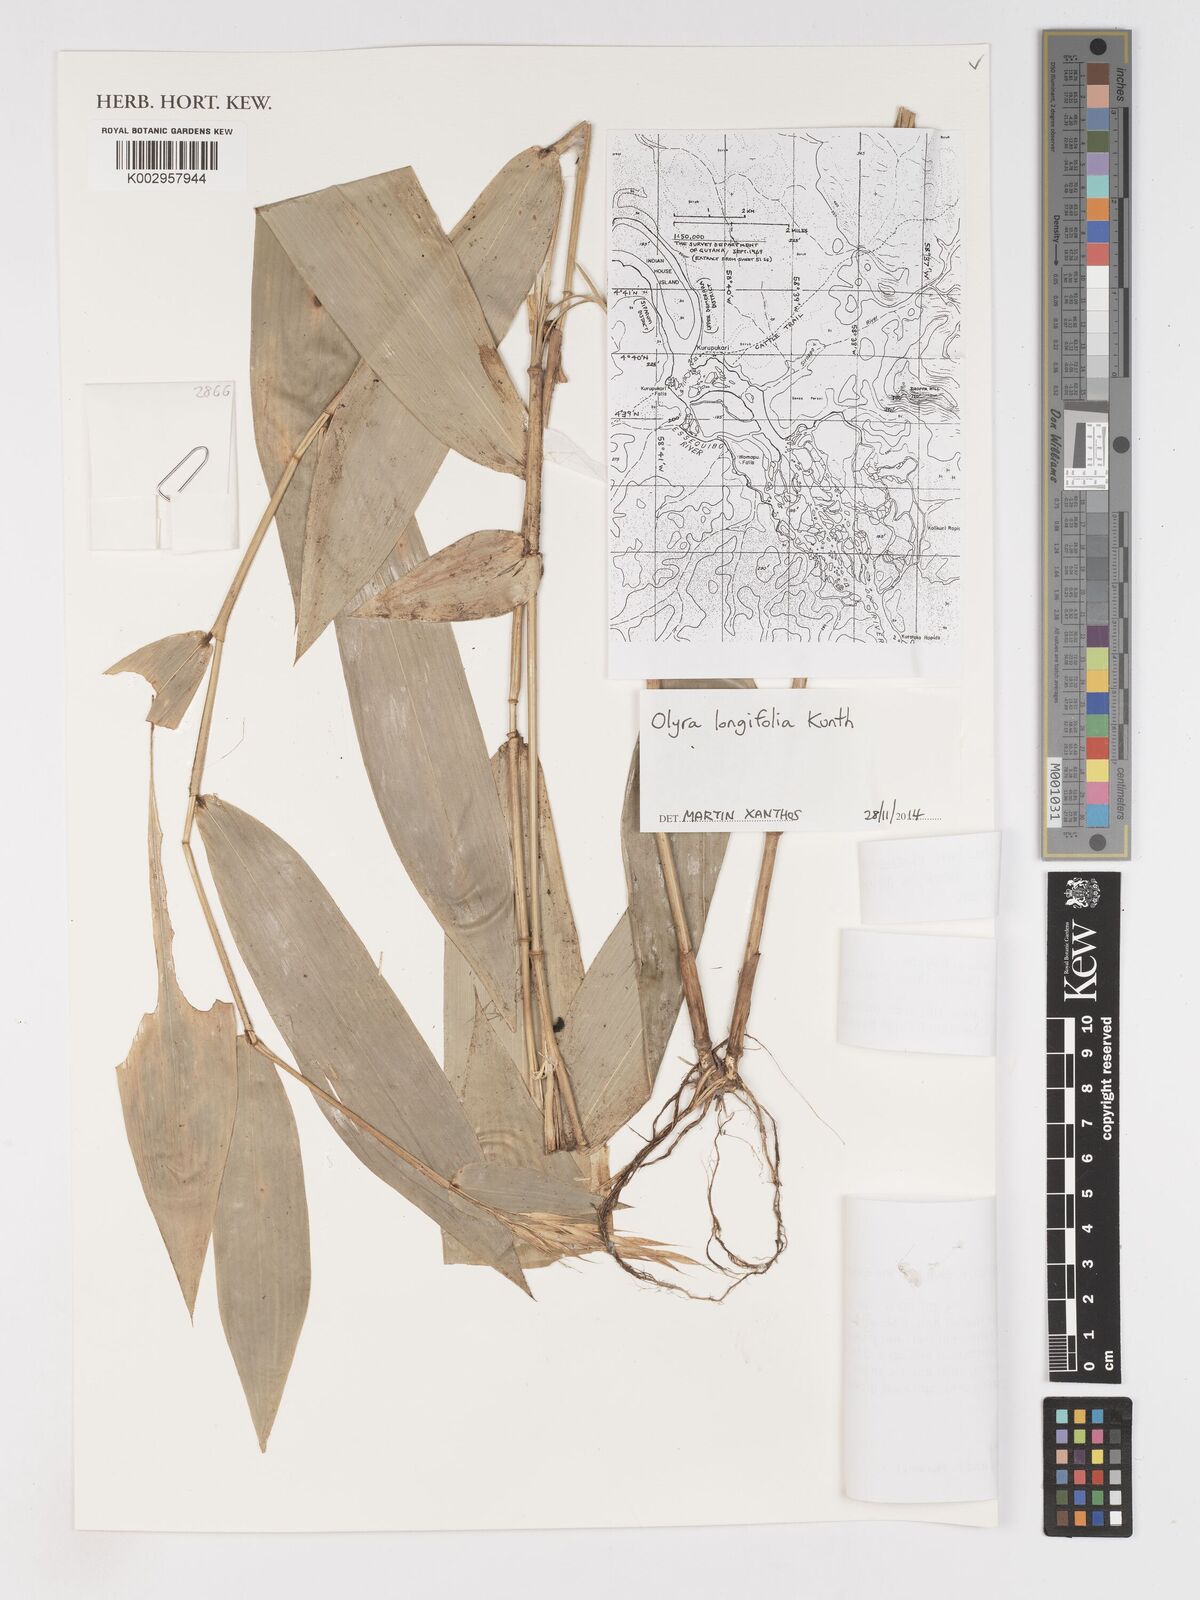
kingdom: Plantae
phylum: Tracheophyta
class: Liliopsida
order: Poales
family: Poaceae
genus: Olyra
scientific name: Olyra longifolia
